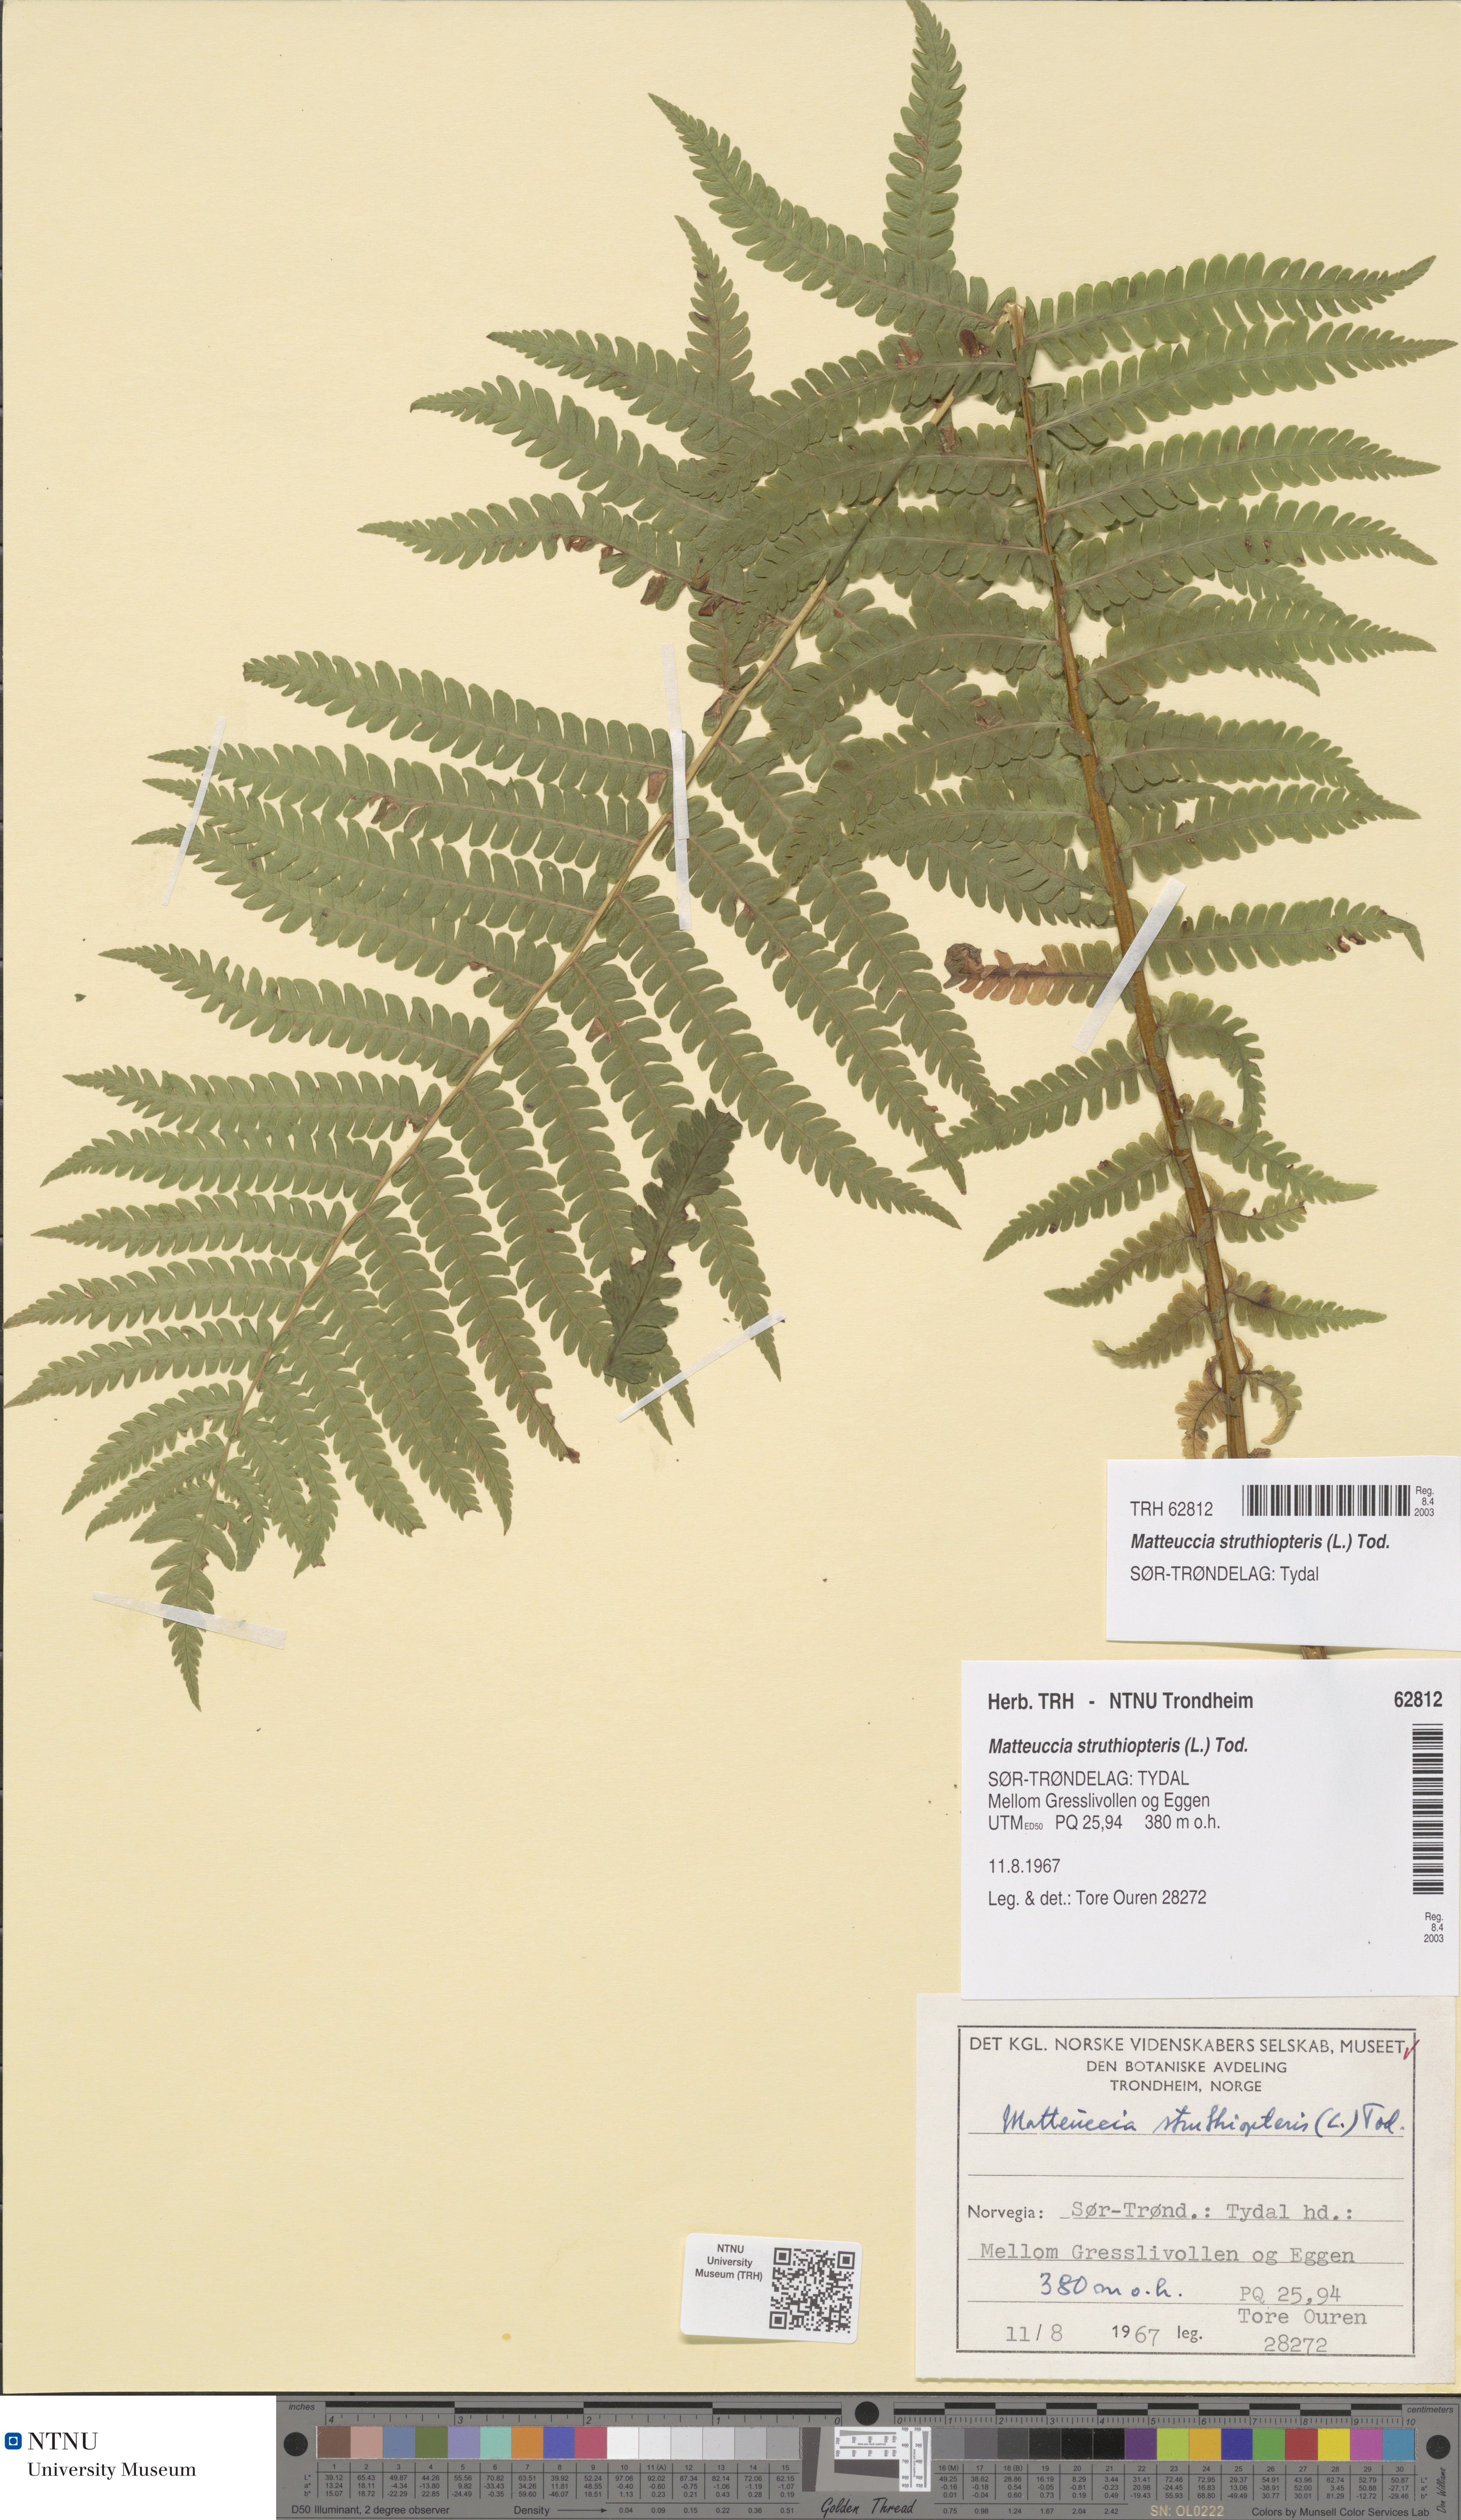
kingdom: Plantae
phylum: Tracheophyta
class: Polypodiopsida
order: Polypodiales
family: Onocleaceae
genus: Matteuccia
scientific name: Matteuccia struthiopteris
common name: Ostrich fern
